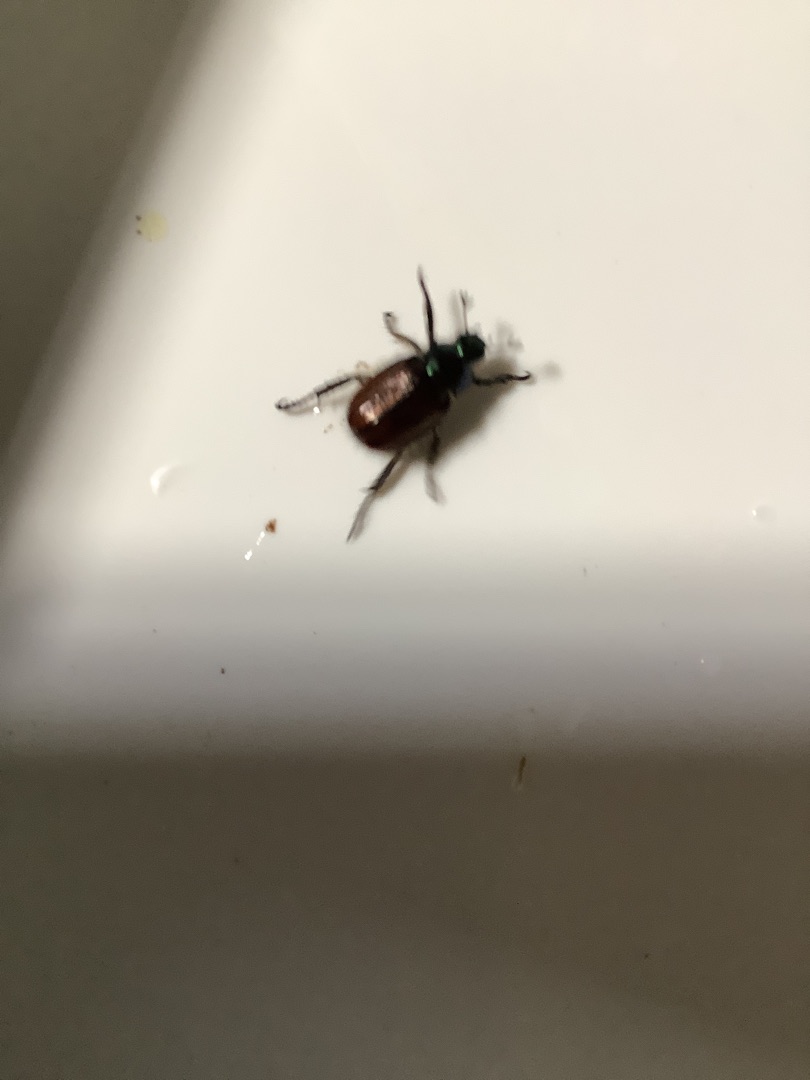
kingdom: Animalia
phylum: Arthropoda
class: Insecta
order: Coleoptera
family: Scarabaeidae
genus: Phyllopertha
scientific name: Phyllopertha horticola
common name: Gåsebille
